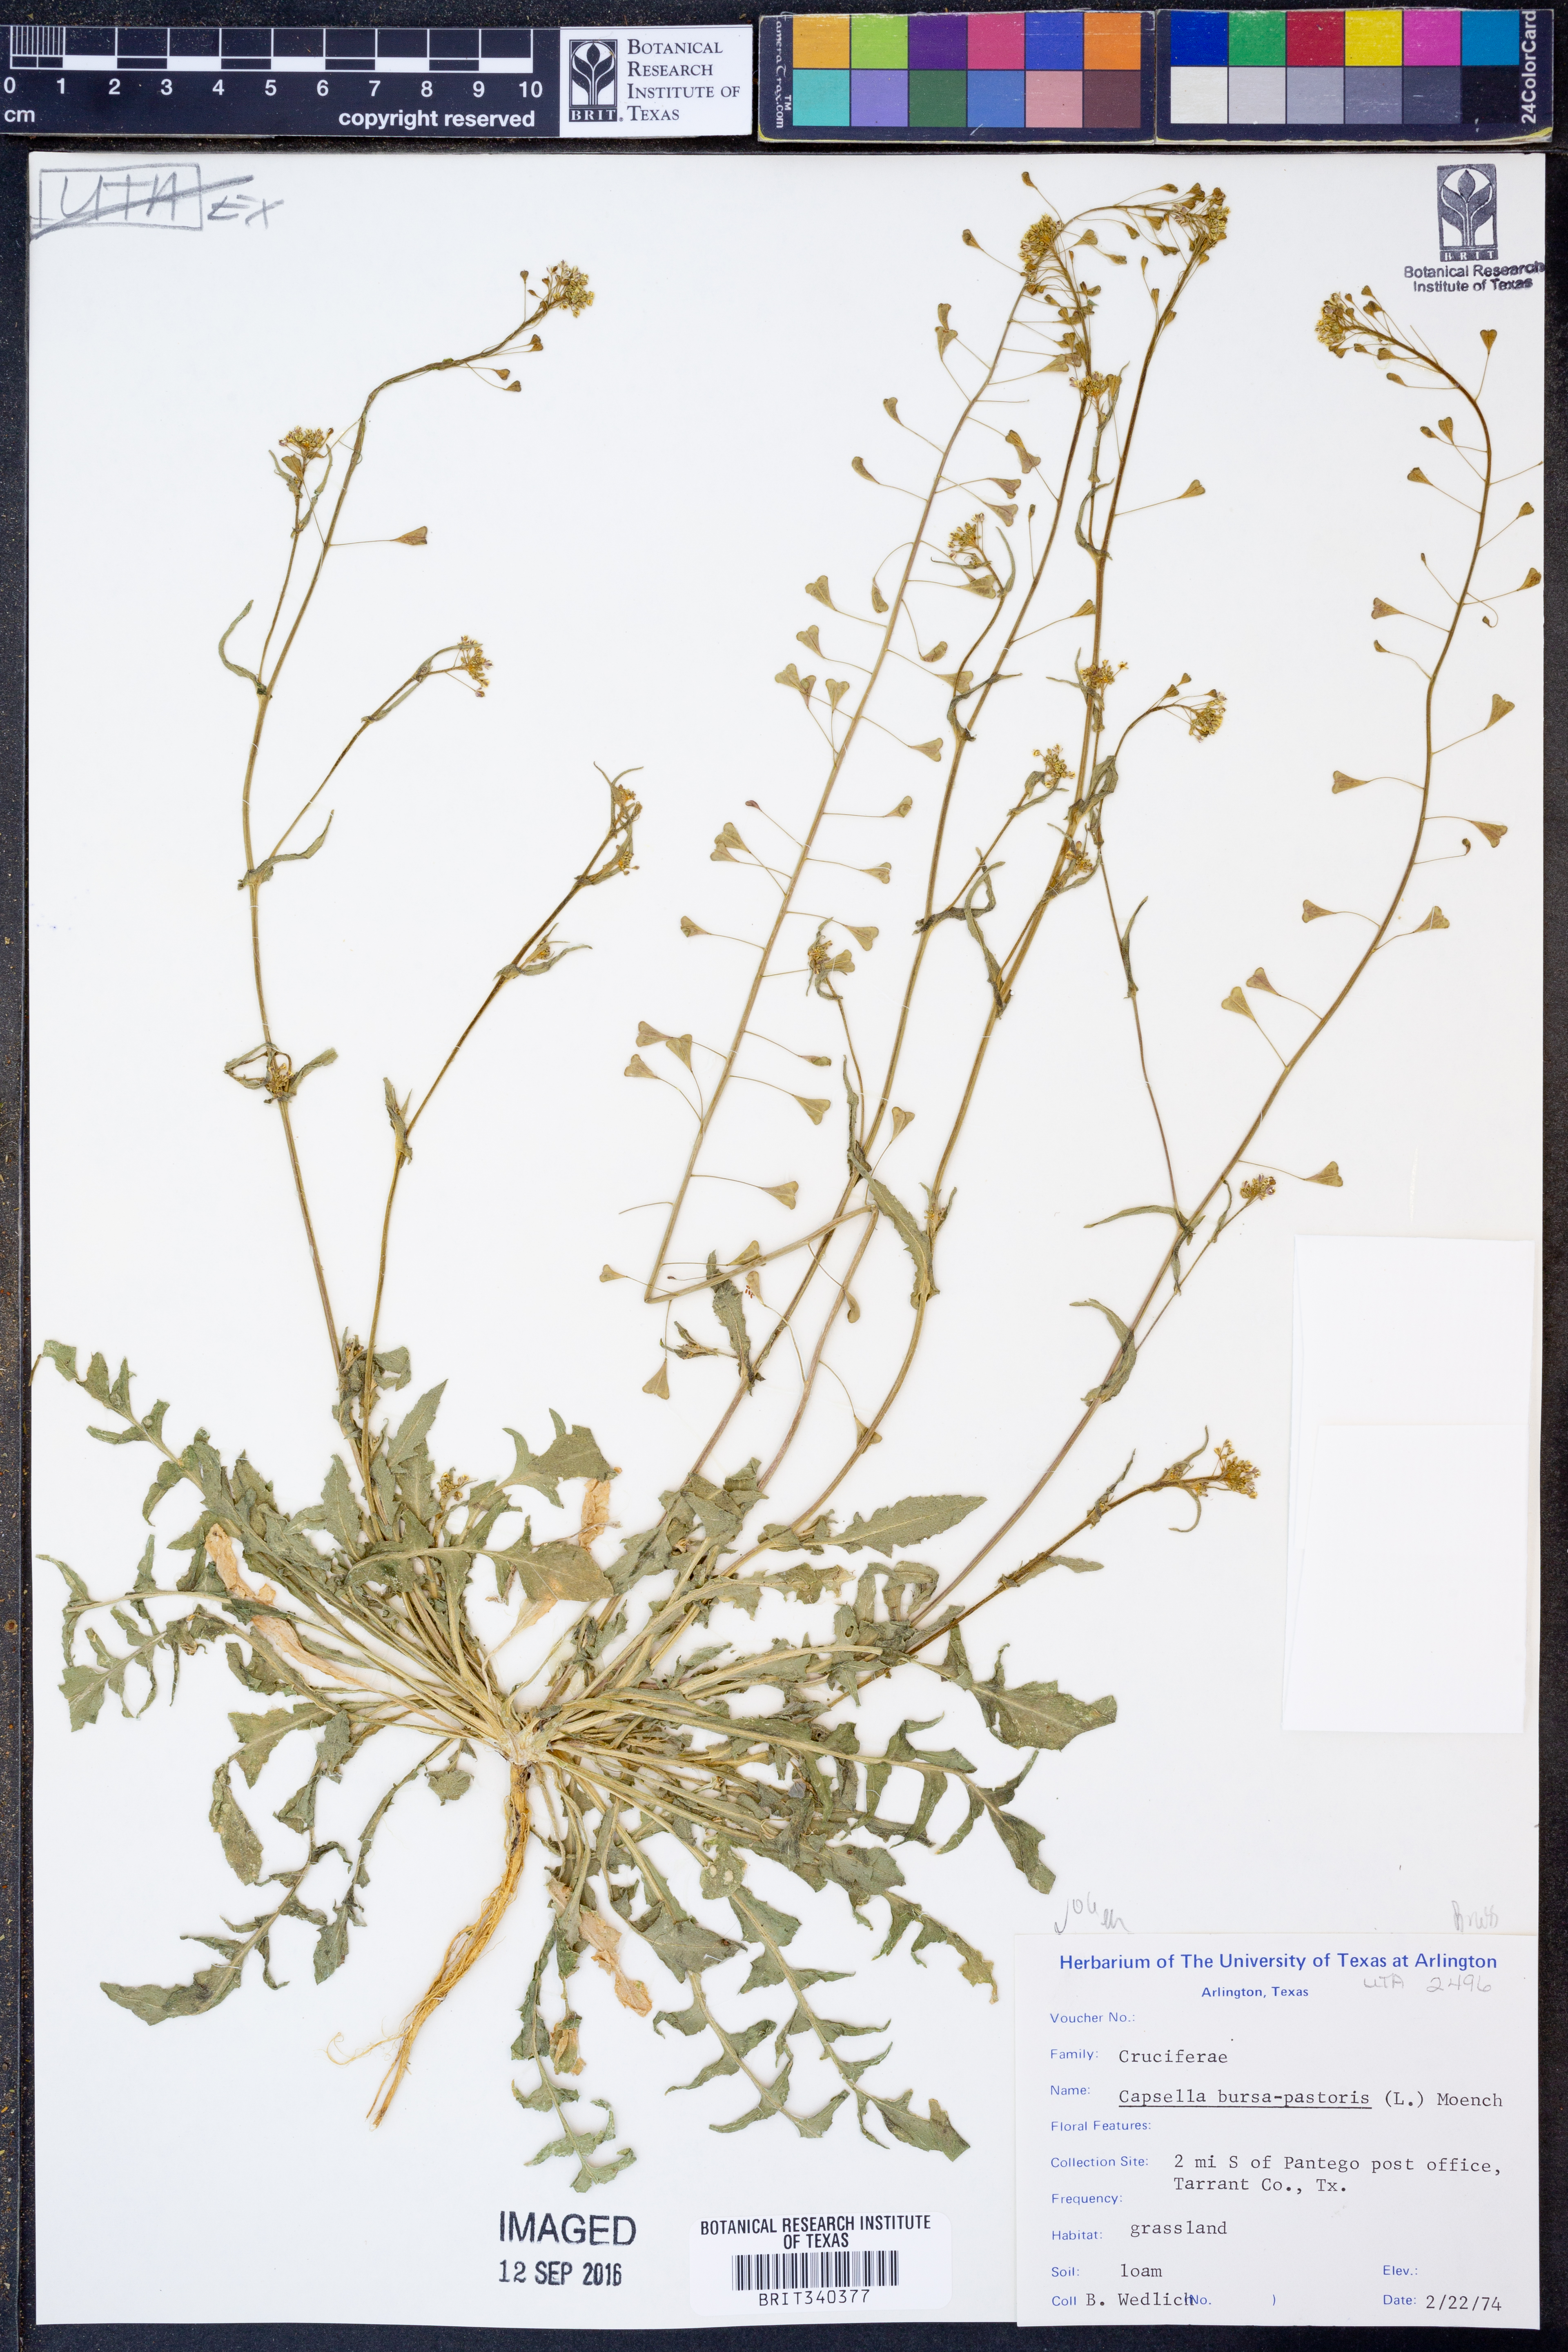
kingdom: Plantae
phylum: Tracheophyta
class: Magnoliopsida
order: Brassicales
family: Brassicaceae
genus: Capsella
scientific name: Capsella bursa-pastoris
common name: Shepherd's purse
